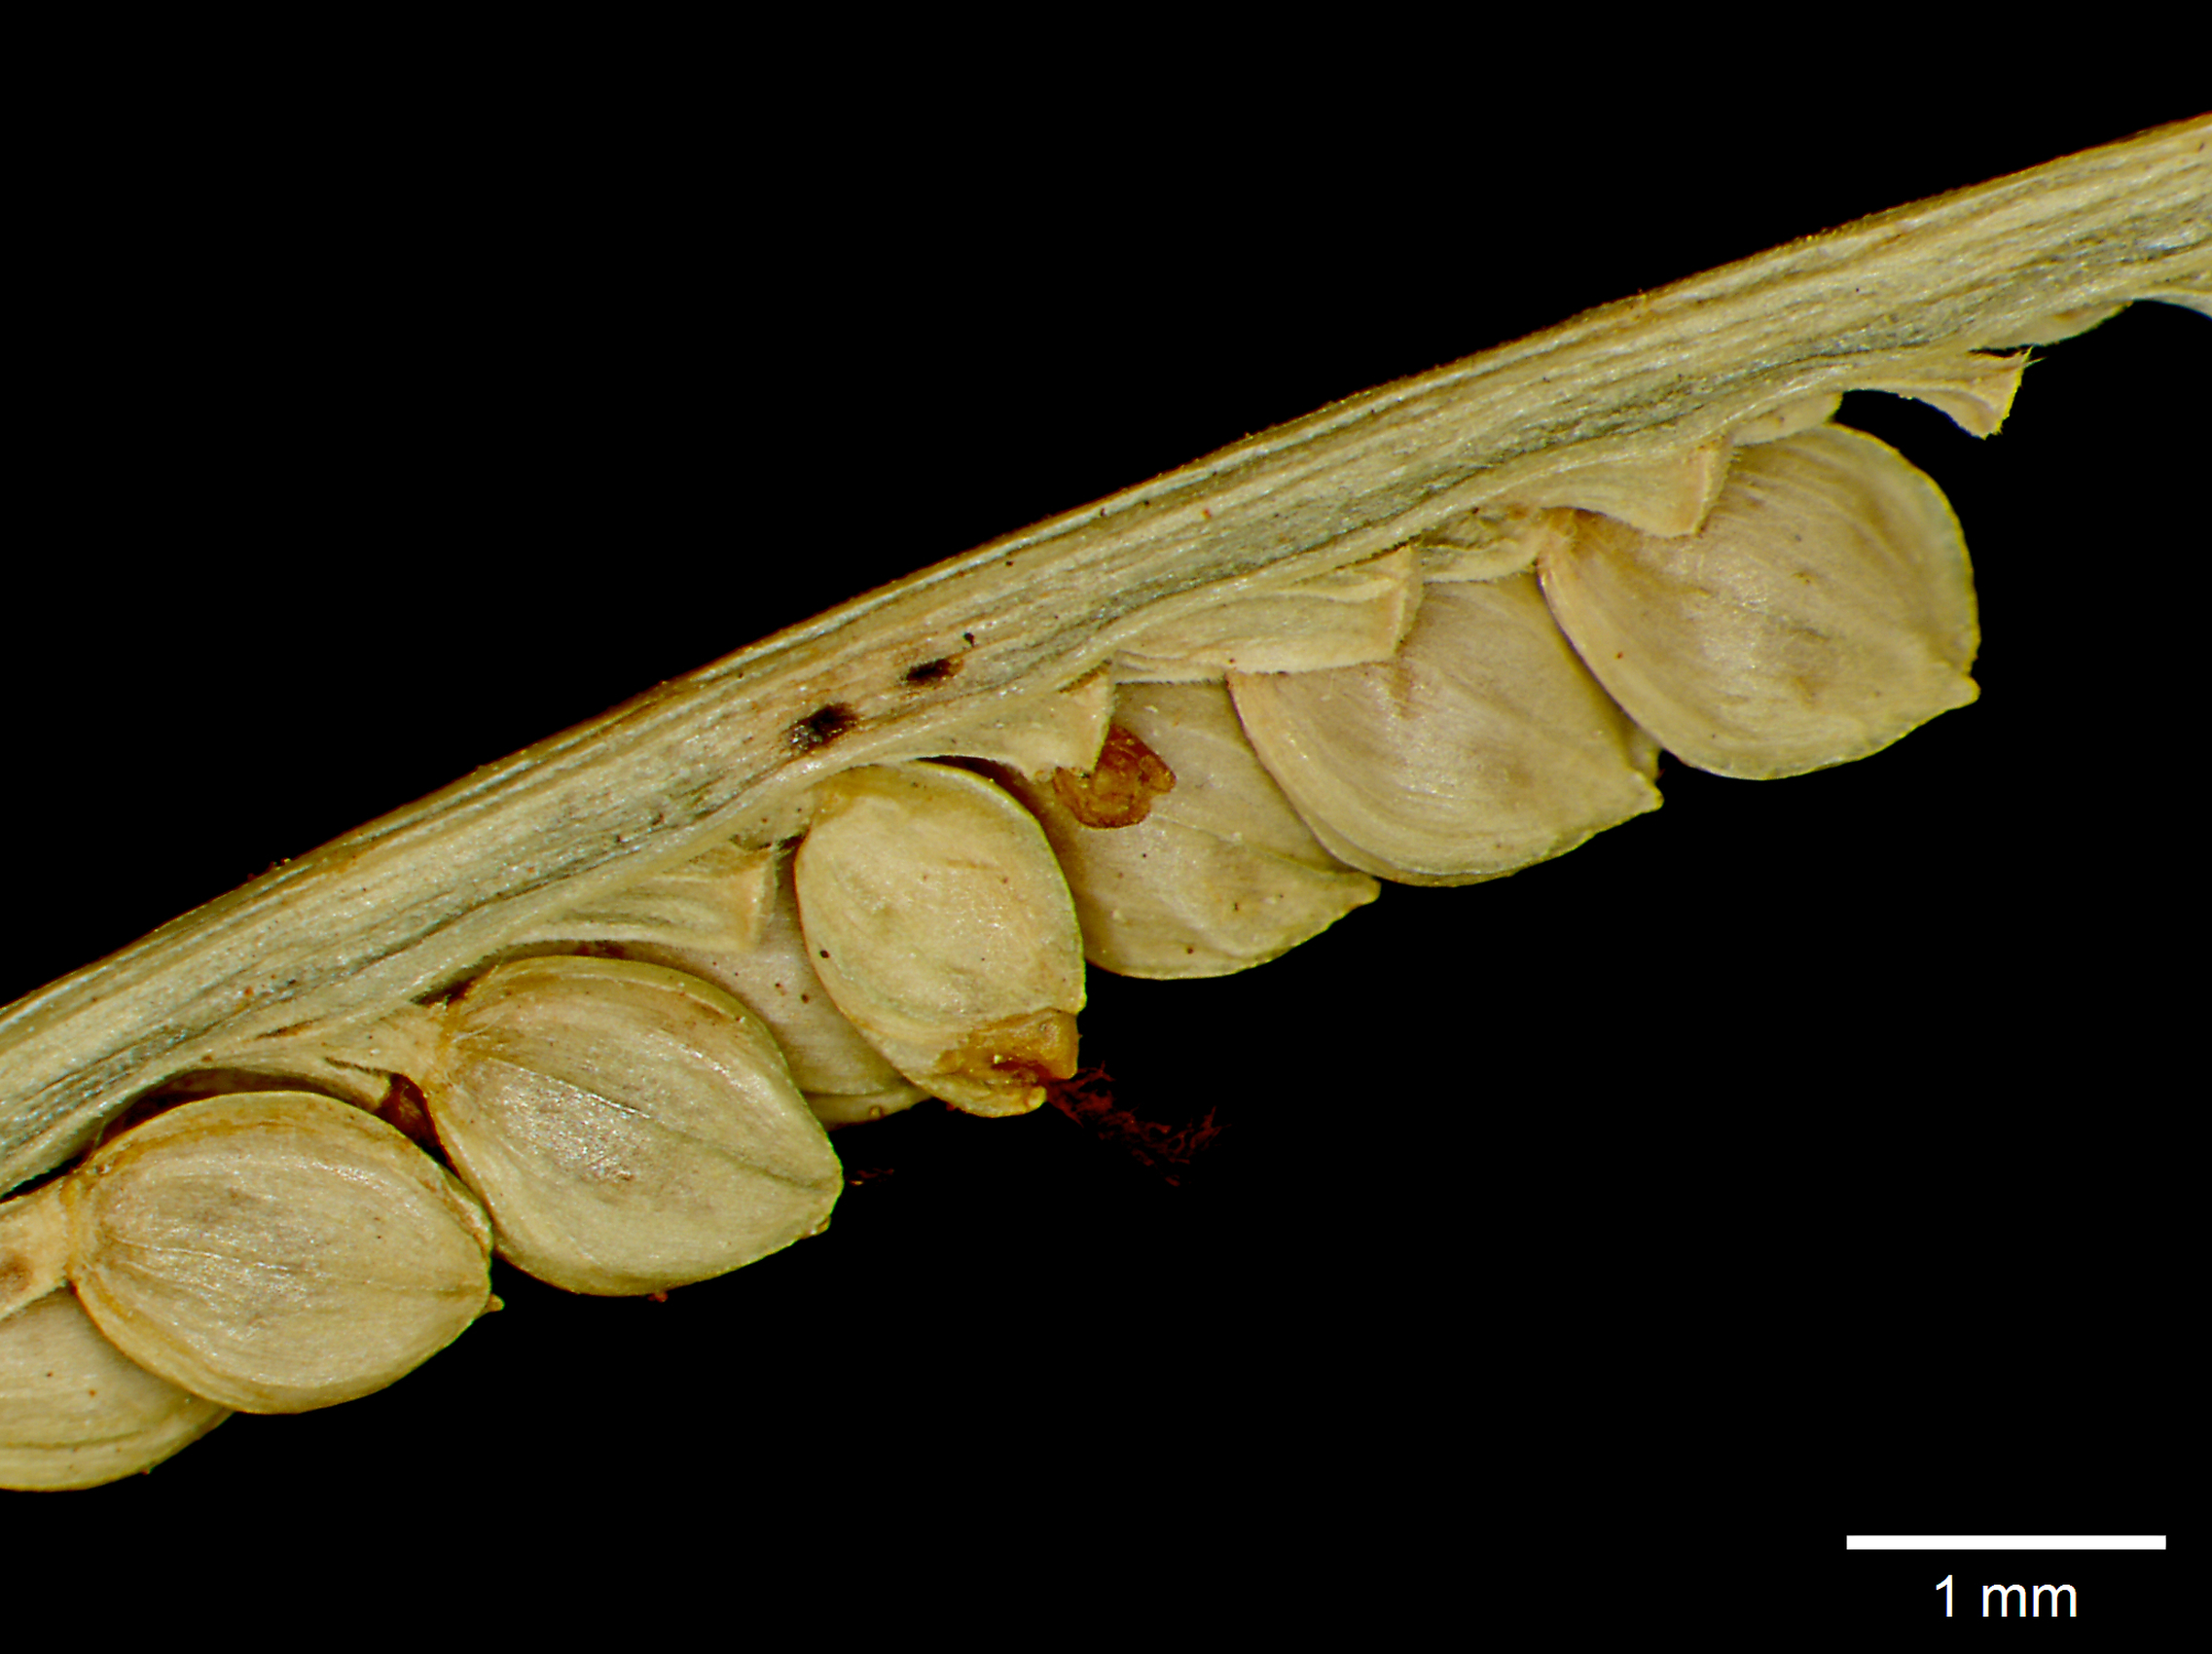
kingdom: Plantae
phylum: Tracheophyta
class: Liliopsida
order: Poales
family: Poaceae
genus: Paspalum
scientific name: Paspalum breve
